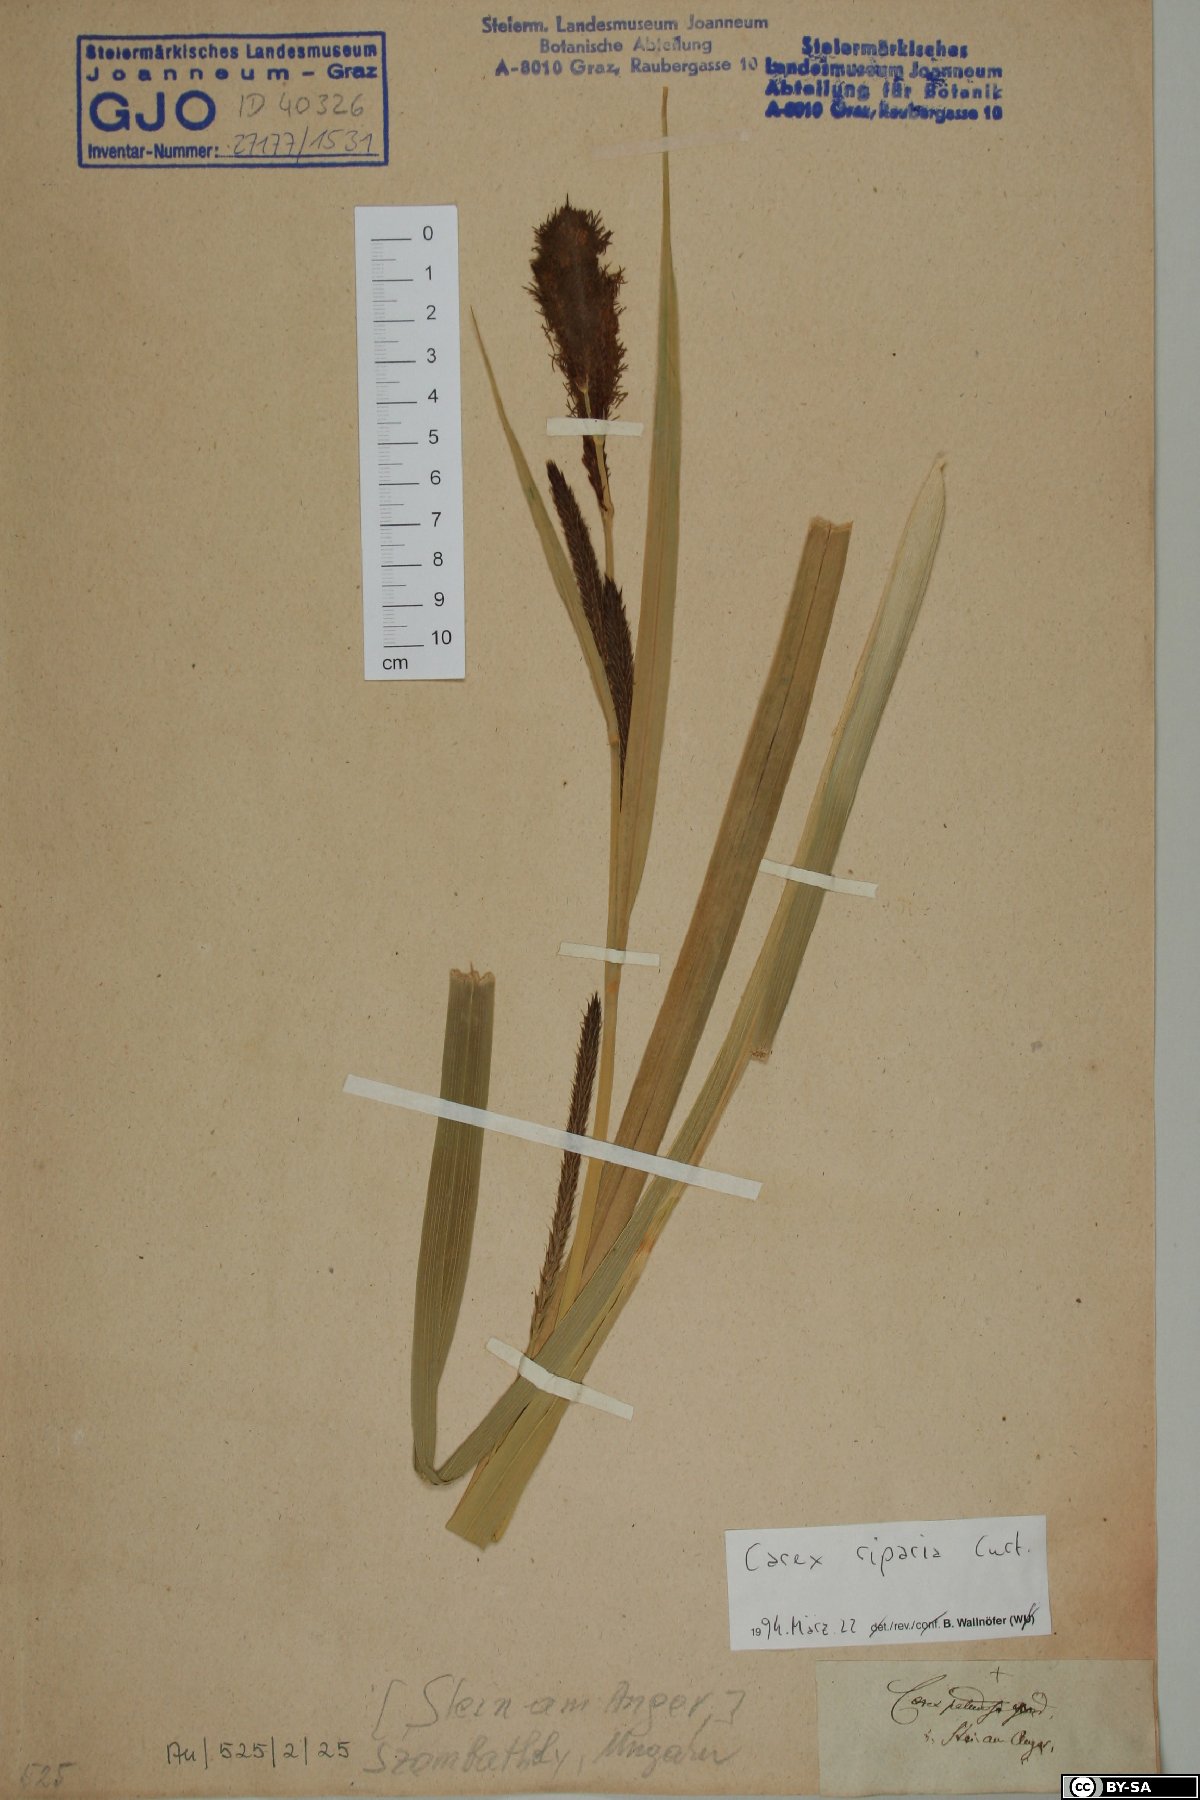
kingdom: Plantae
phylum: Tracheophyta
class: Liliopsida
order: Poales
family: Cyperaceae
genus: Carex
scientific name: Carex riparia
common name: Greater pond-sedge
